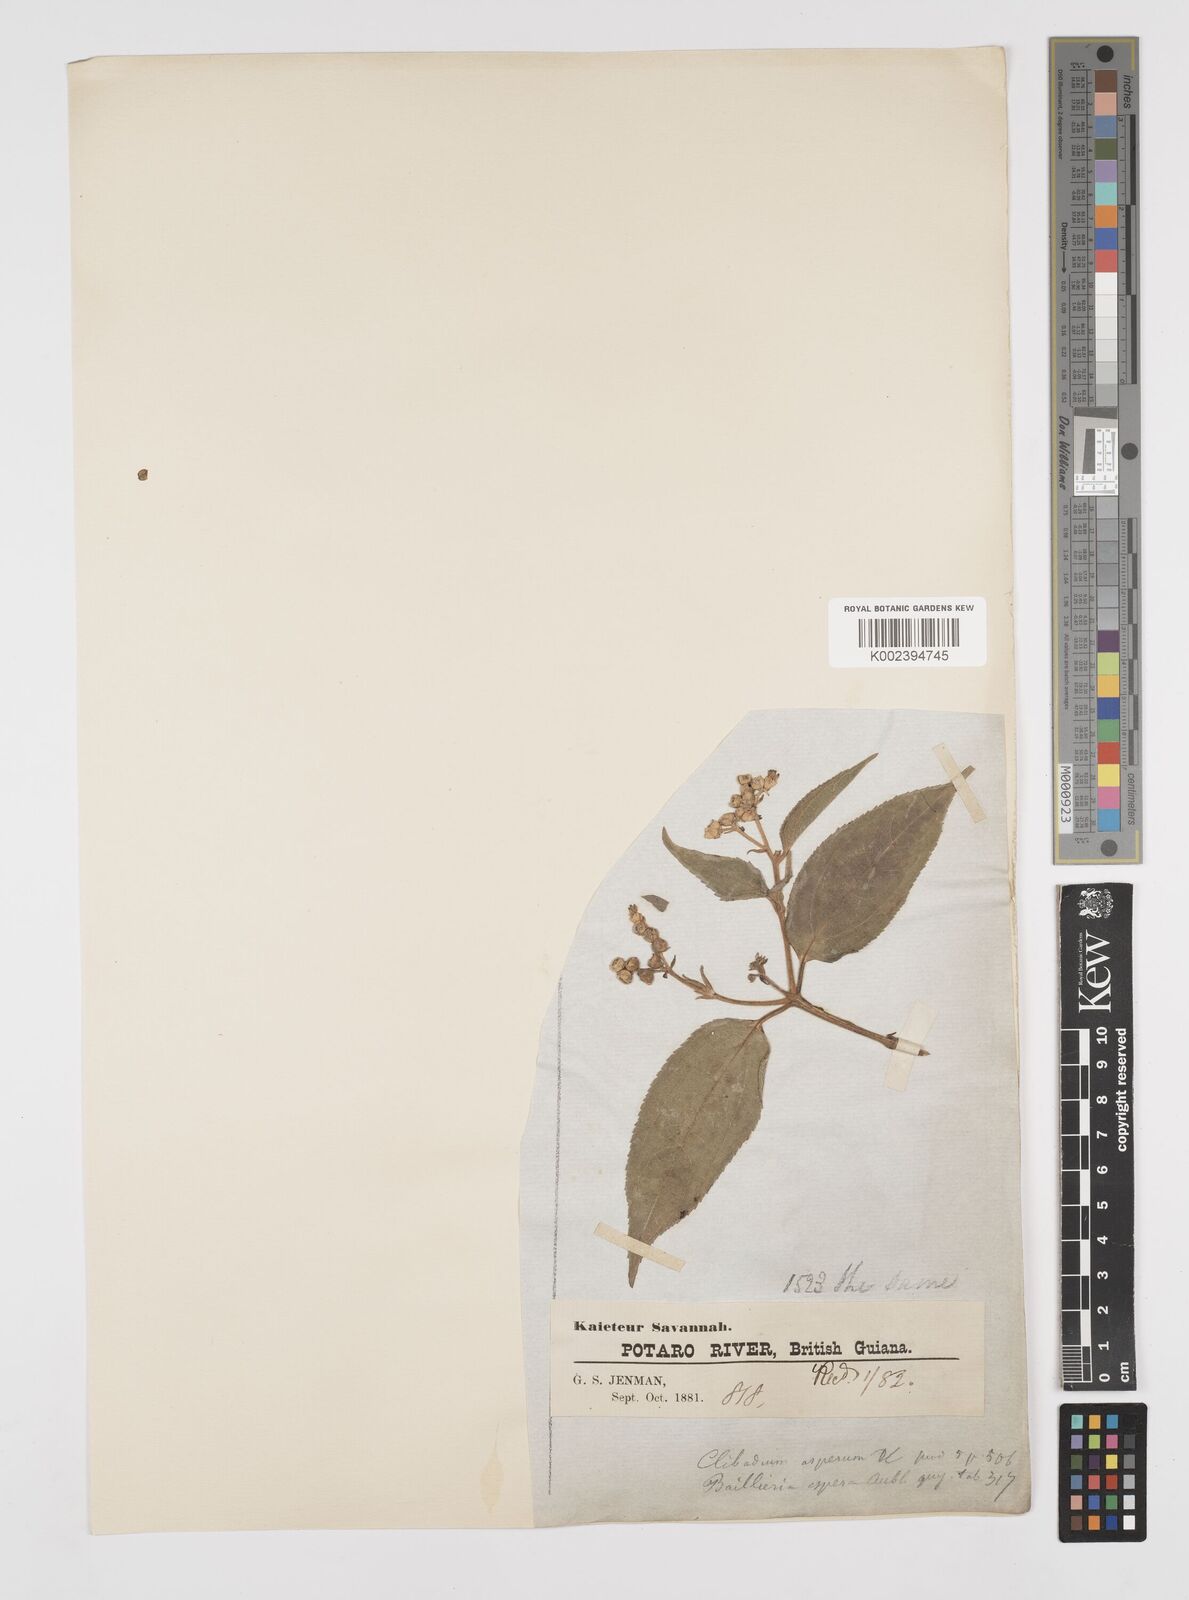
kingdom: Plantae
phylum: Tracheophyta
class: Magnoliopsida
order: Asterales
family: Asteraceae
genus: Clibadium
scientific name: Clibadium surinamense
